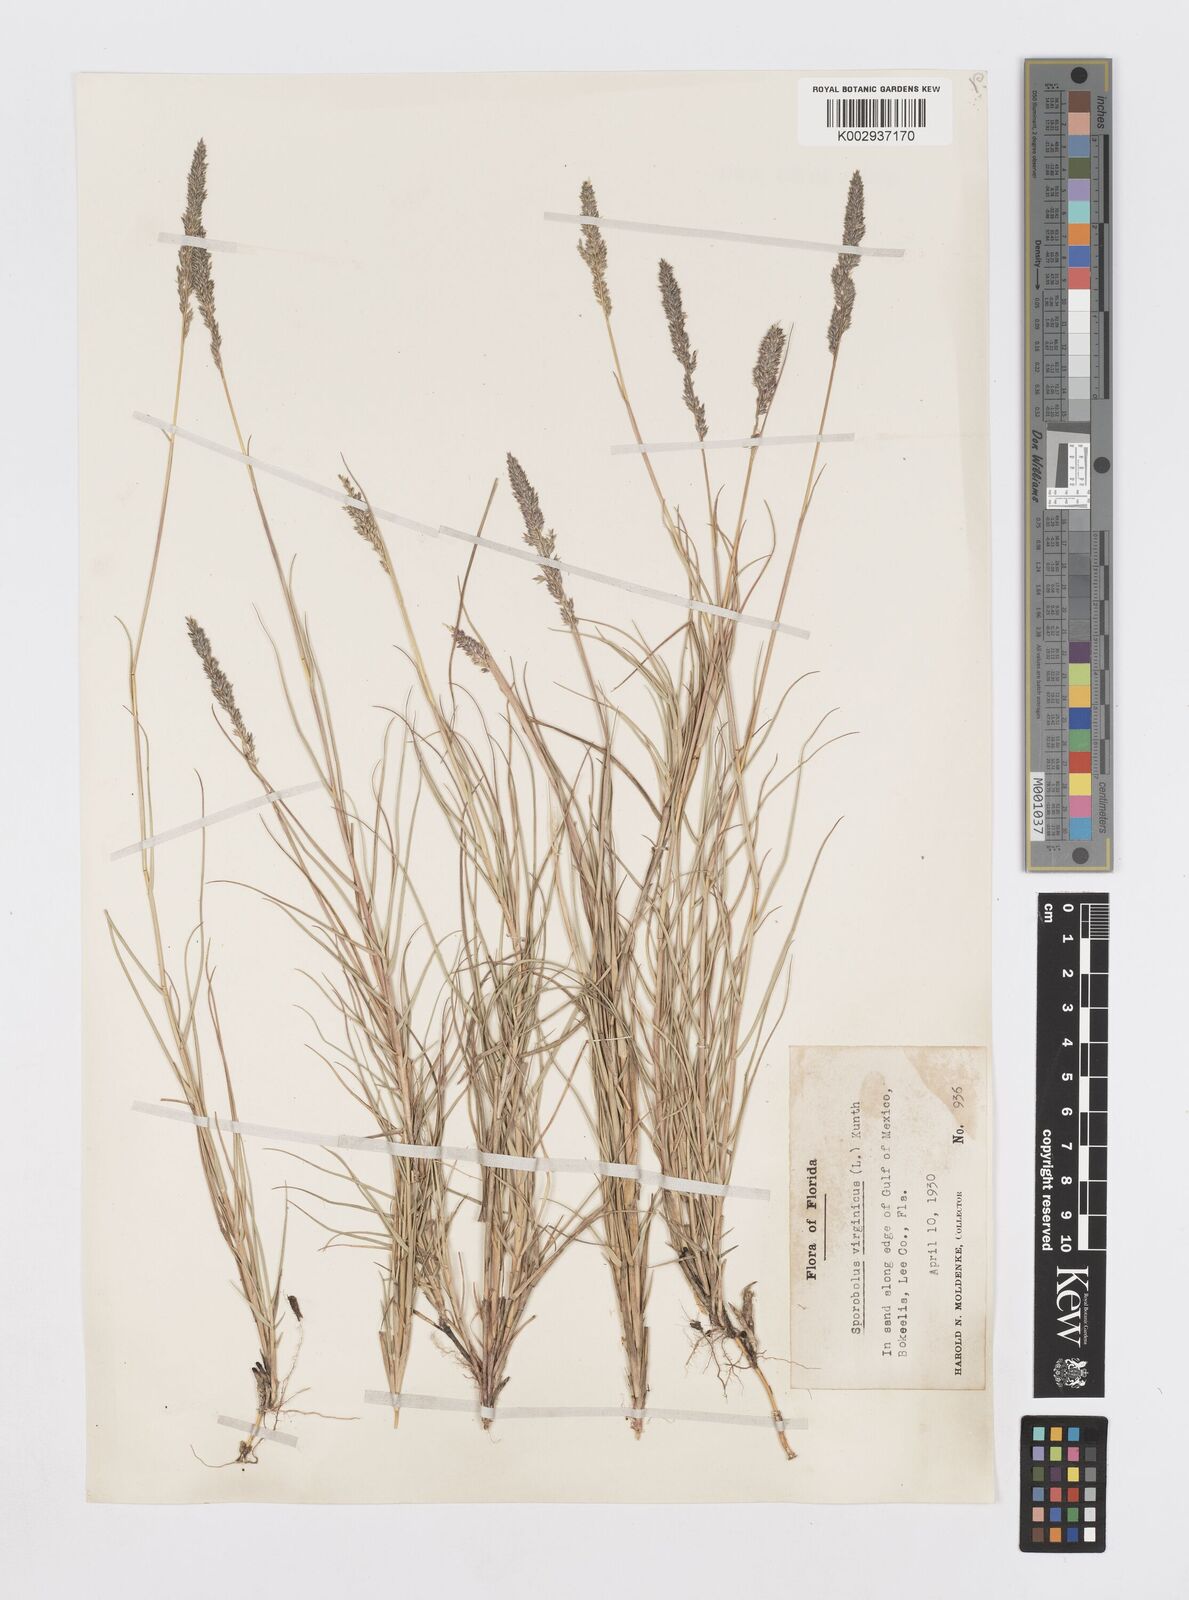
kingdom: Plantae
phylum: Tracheophyta
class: Liliopsida
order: Poales
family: Poaceae
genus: Sporobolus
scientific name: Sporobolus virginicus
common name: Beach dropseed
